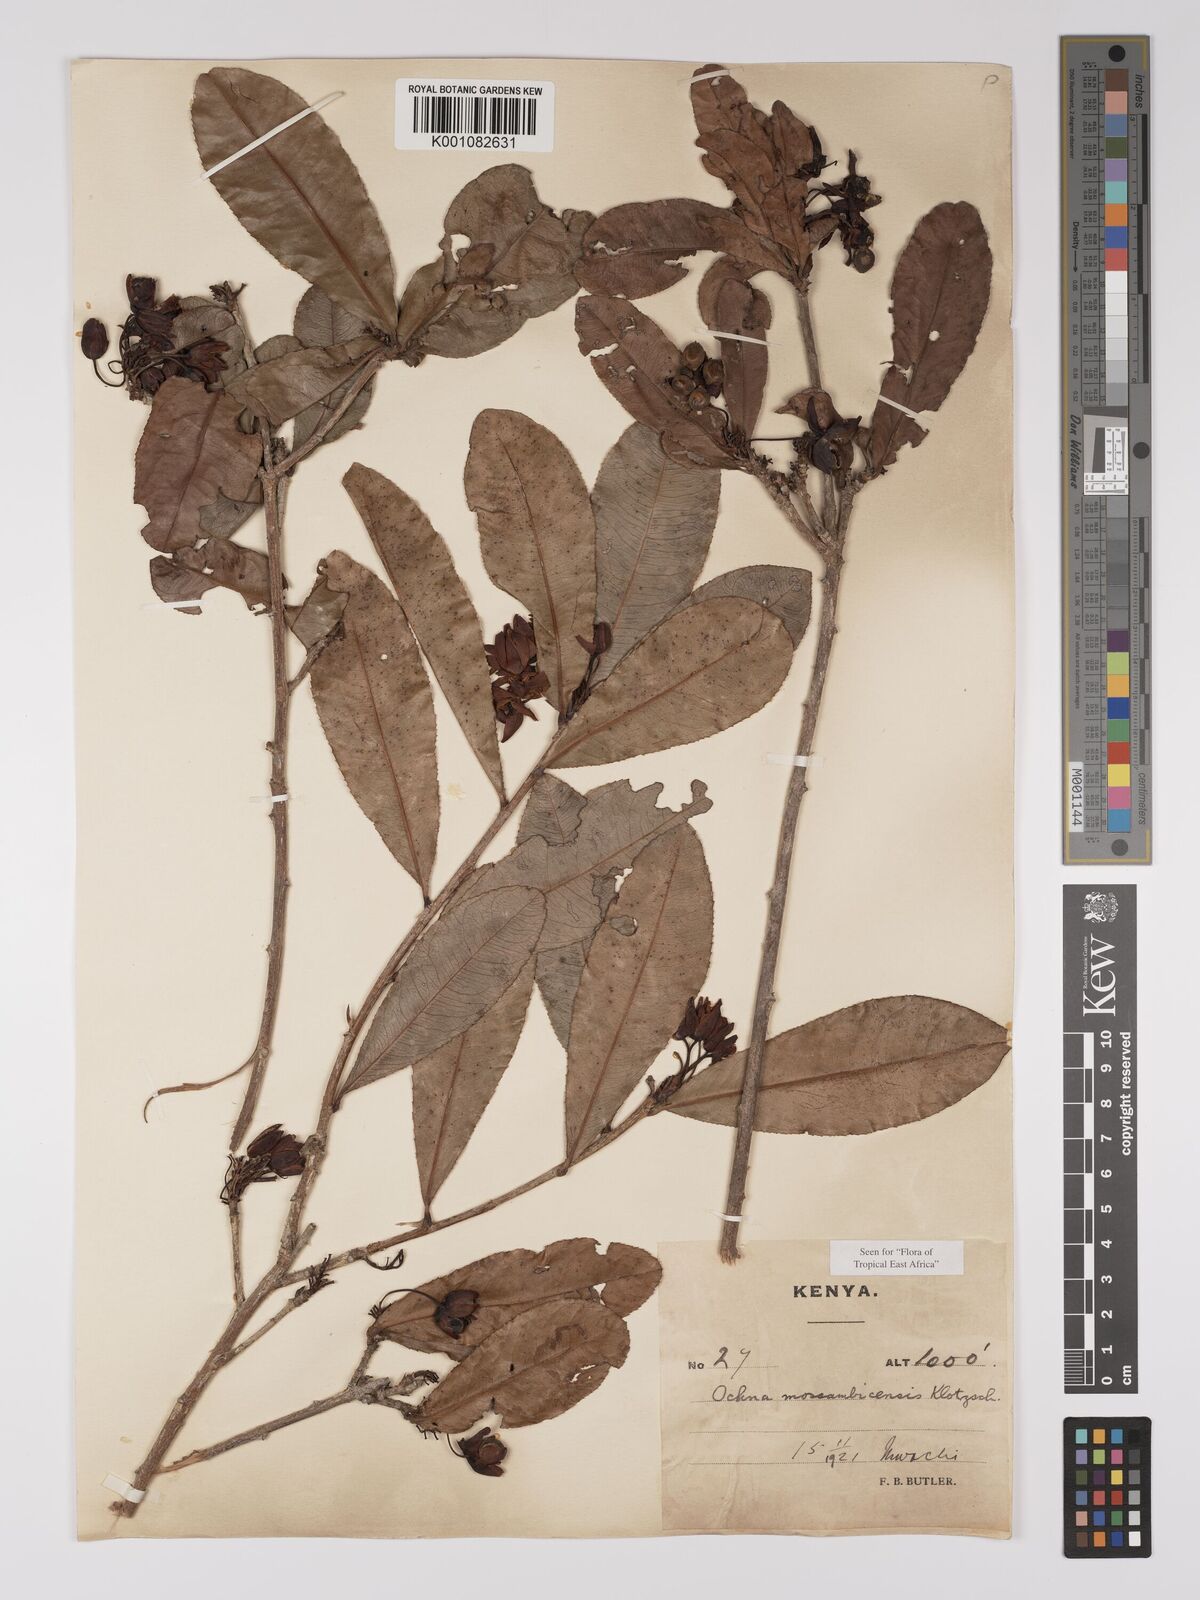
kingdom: Plantae
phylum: Tracheophyta
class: Magnoliopsida
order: Malpighiales
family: Ochnaceae
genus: Ochna
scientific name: Ochna atropurpurea
